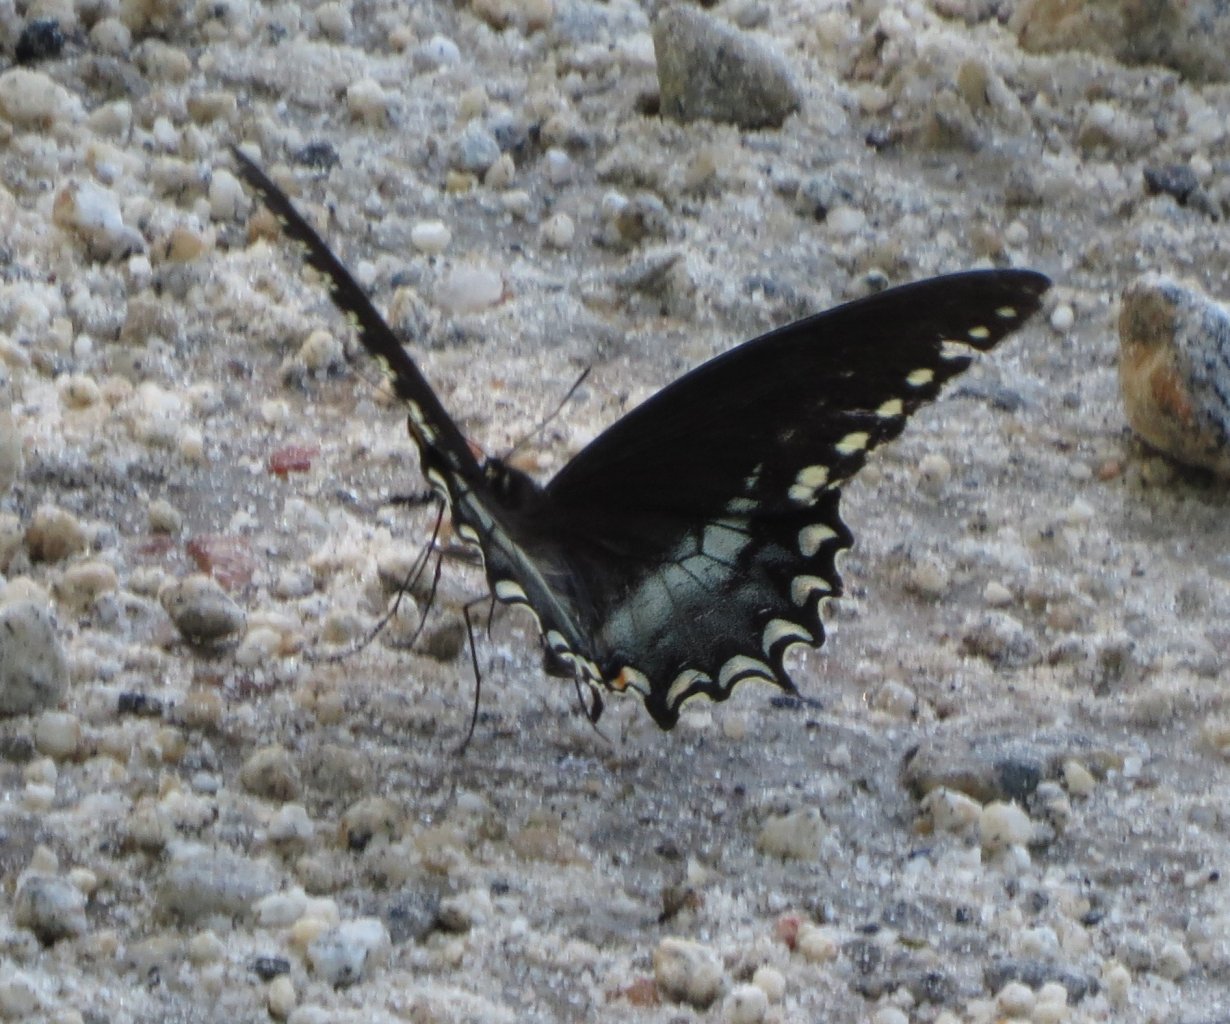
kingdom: Animalia
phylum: Arthropoda
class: Insecta
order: Lepidoptera
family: Papilionidae
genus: Pterourus
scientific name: Pterourus troilus
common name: Spicebush Swallowtail
